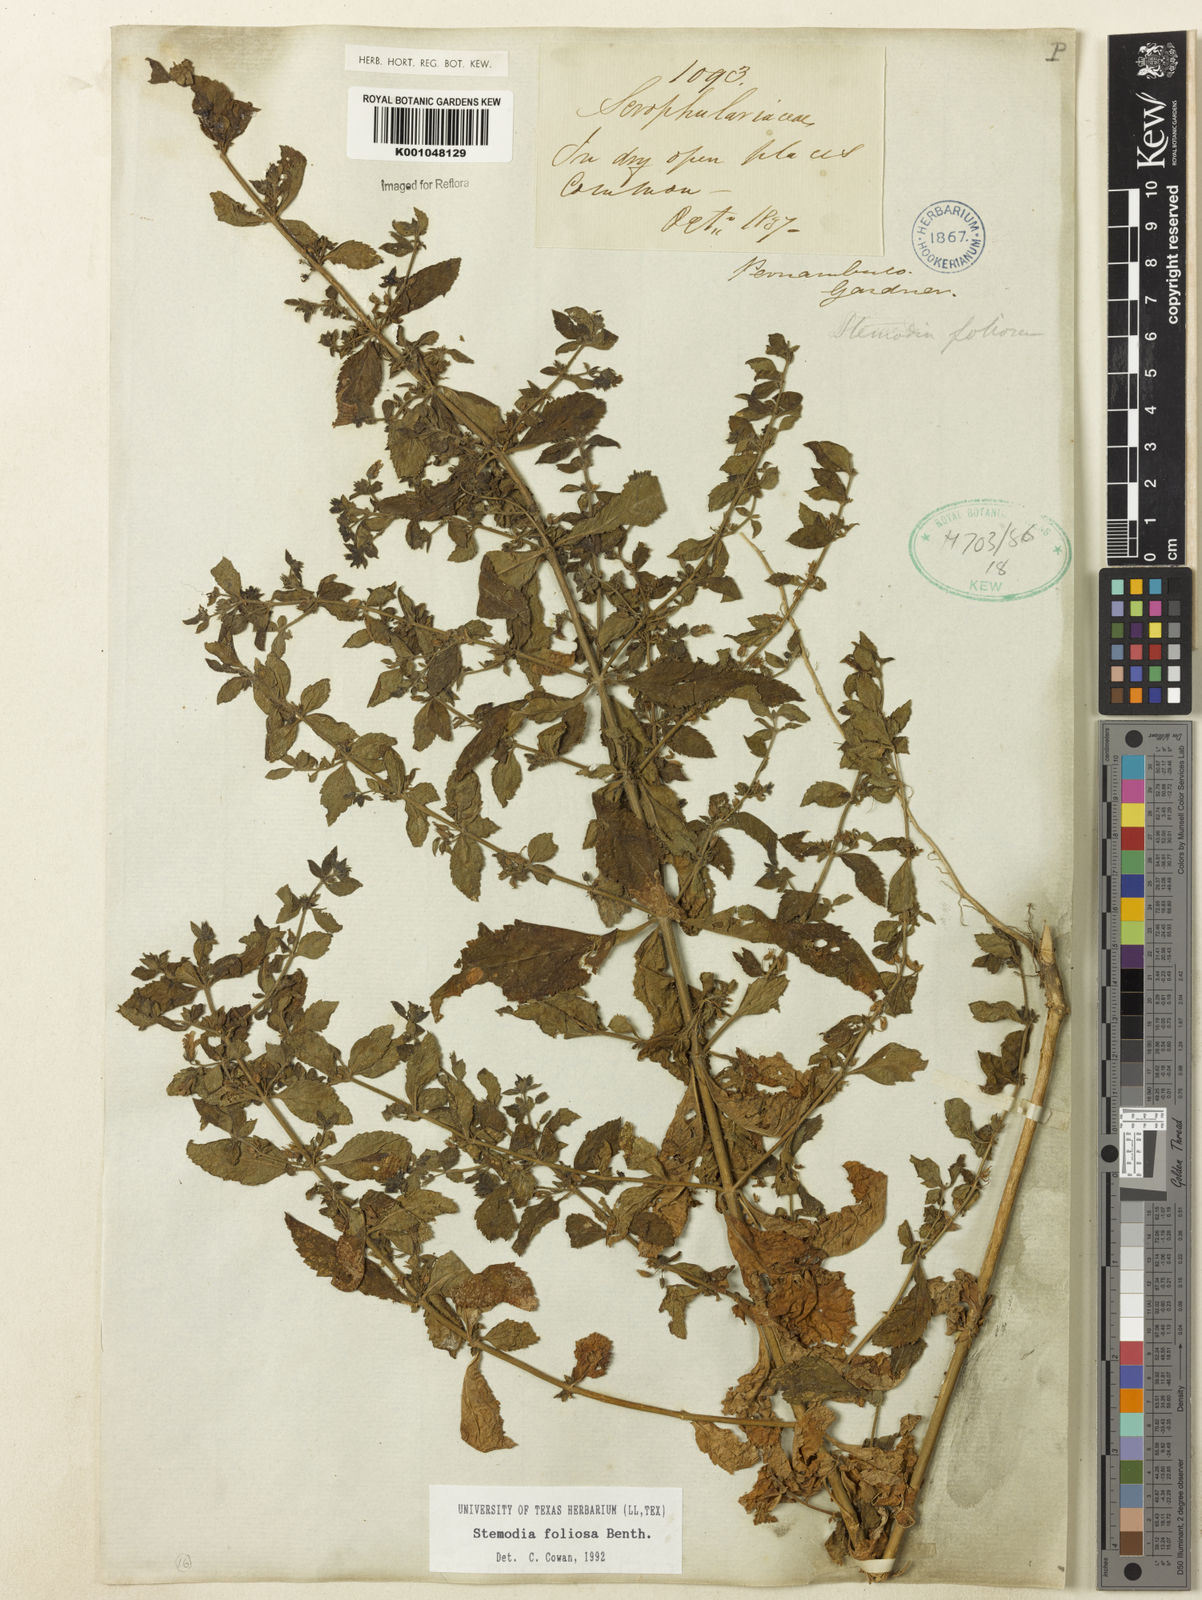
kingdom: Plantae
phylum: Tracheophyta
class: Magnoliopsida
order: Lamiales
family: Plantaginaceae
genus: Stemodia
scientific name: Stemodia foliosa
